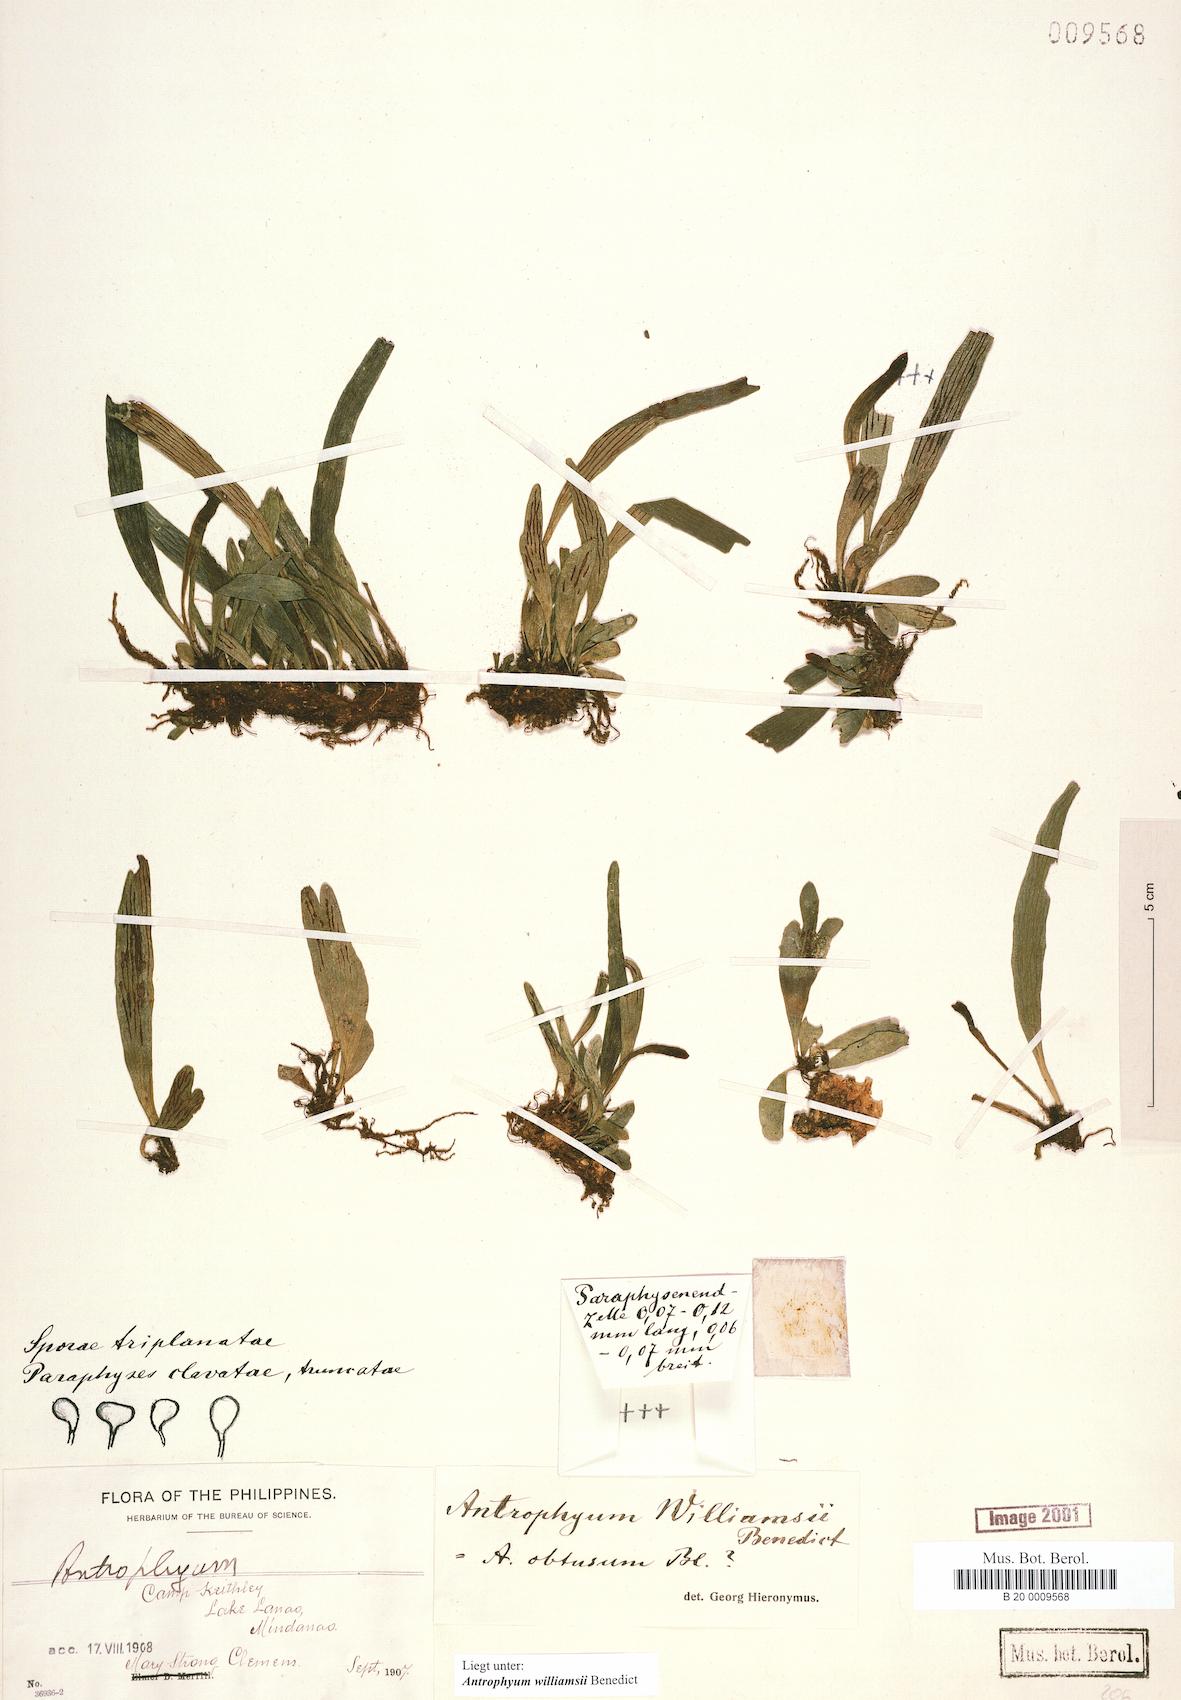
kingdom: Plantae
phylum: Tracheophyta
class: Polypodiopsida
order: Polypodiales
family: Pteridaceae
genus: Antrophyum
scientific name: Antrophyum williamsii
